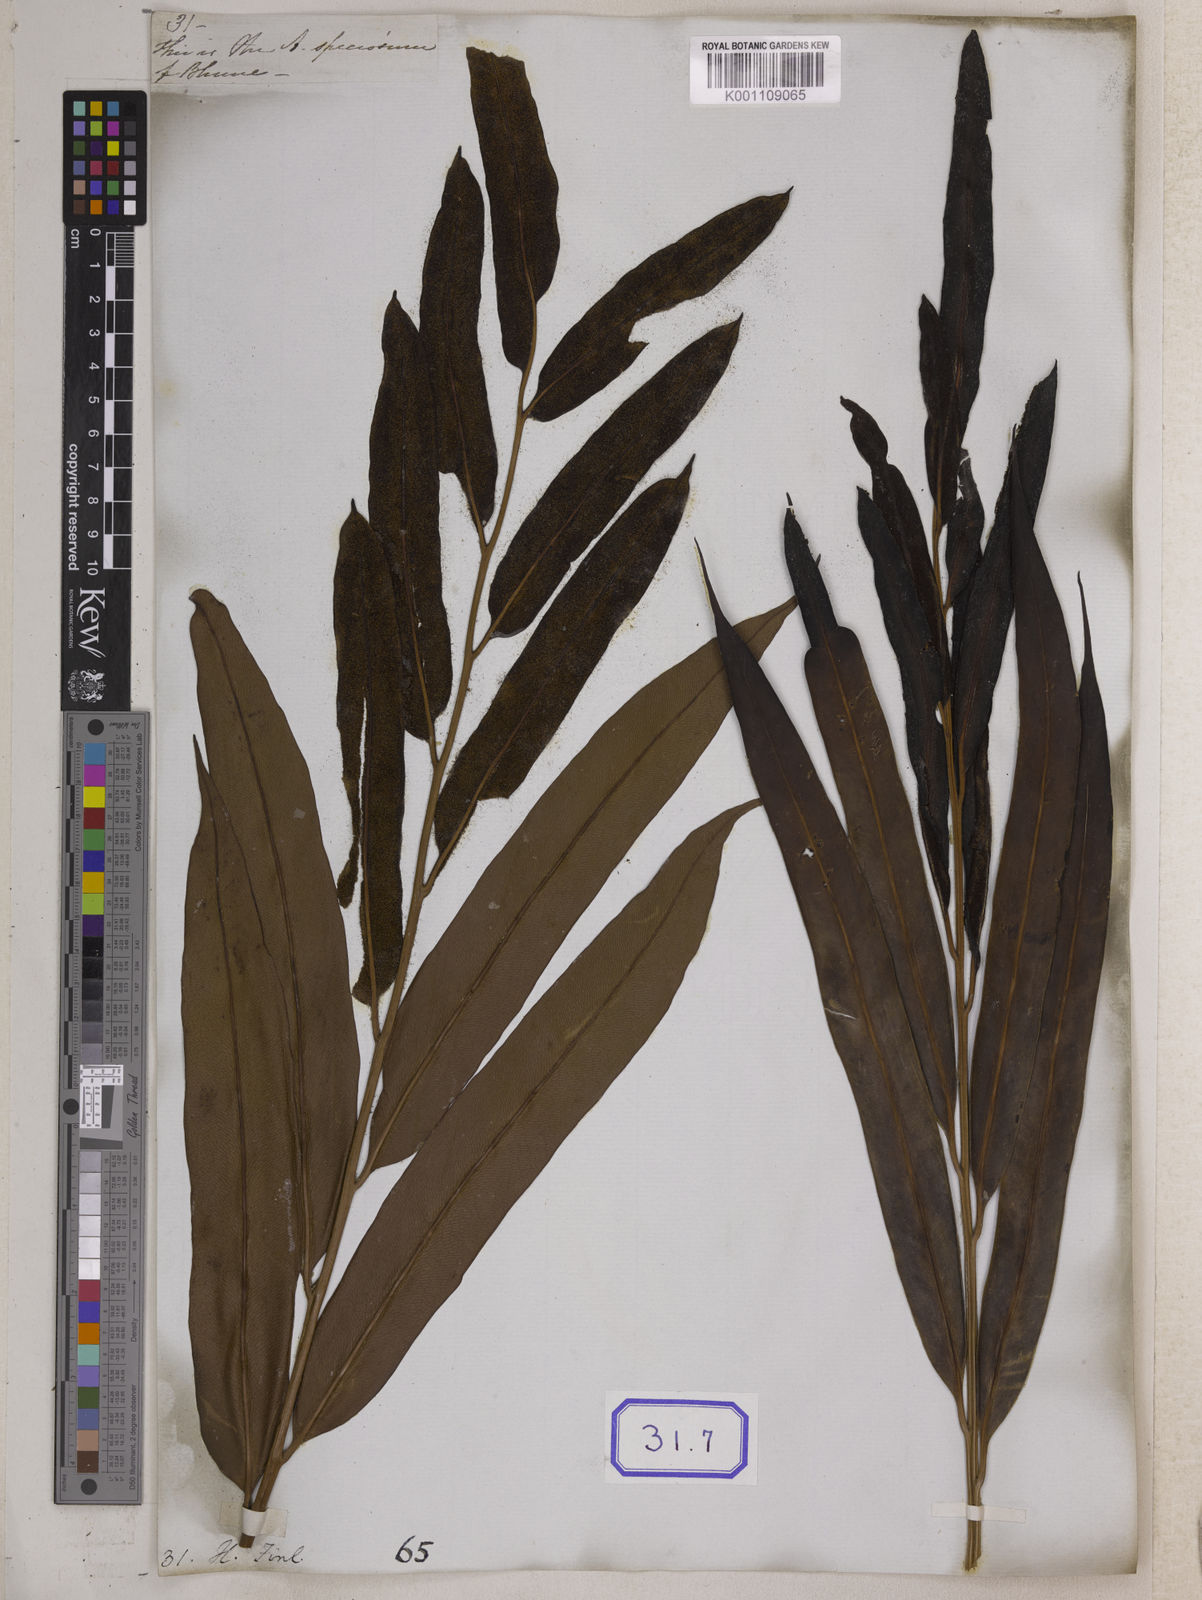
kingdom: Plantae
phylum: Tracheophyta
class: Polypodiopsida
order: Polypodiales
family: Pteridaceae
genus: Acrostichum
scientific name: Acrostichum aureum
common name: Leather fern
